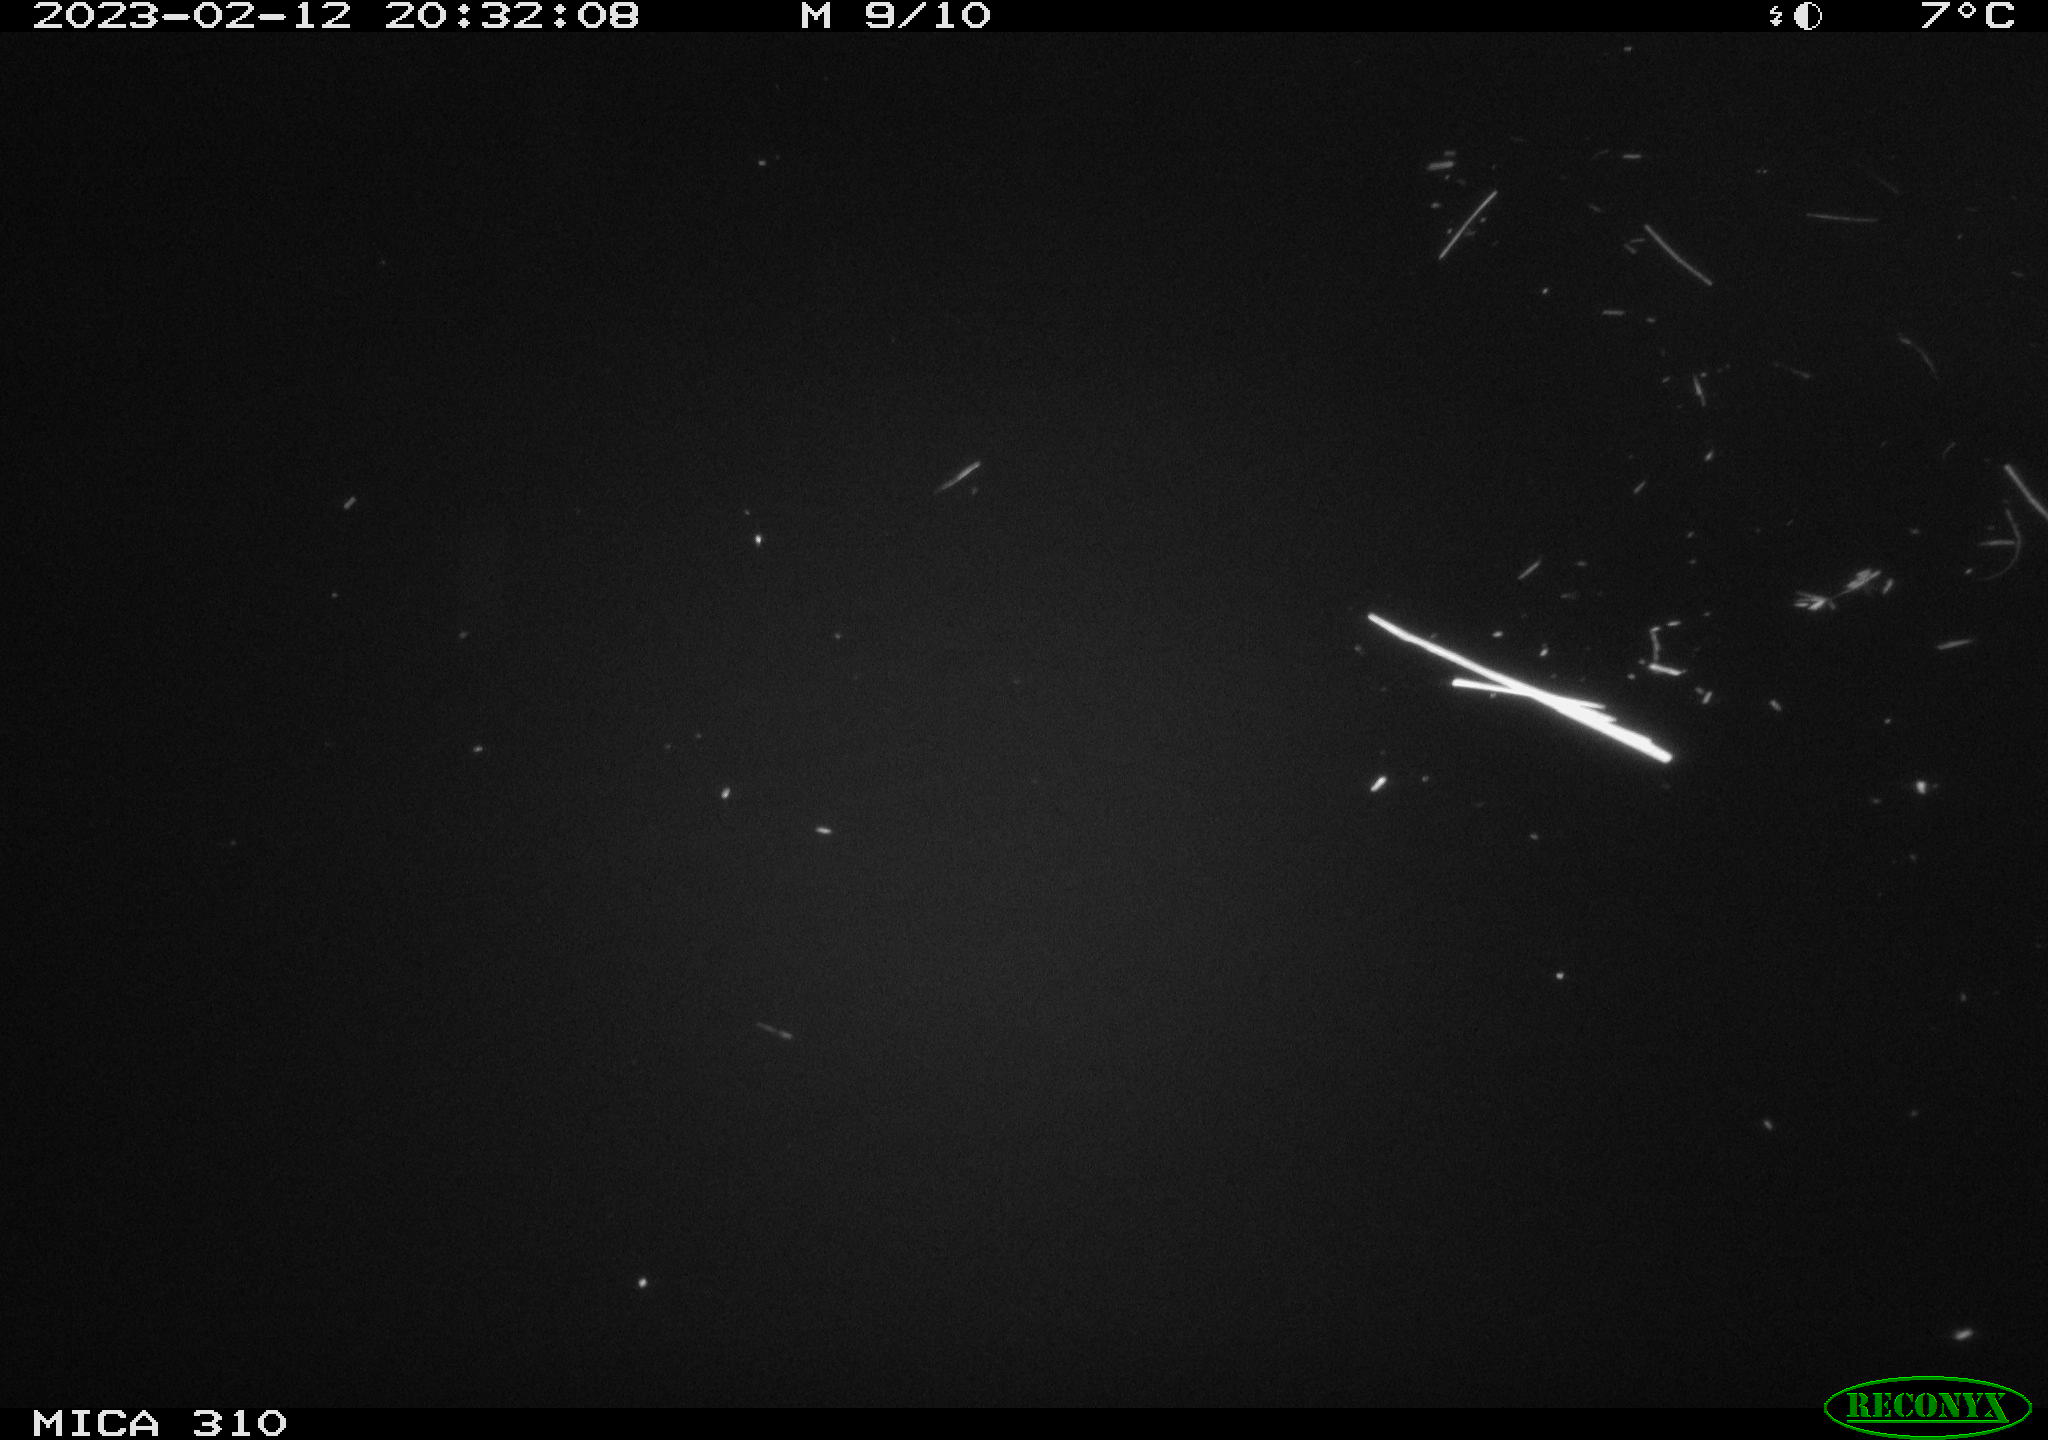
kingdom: Animalia
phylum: Chordata
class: Mammalia
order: Rodentia
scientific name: Rodentia
